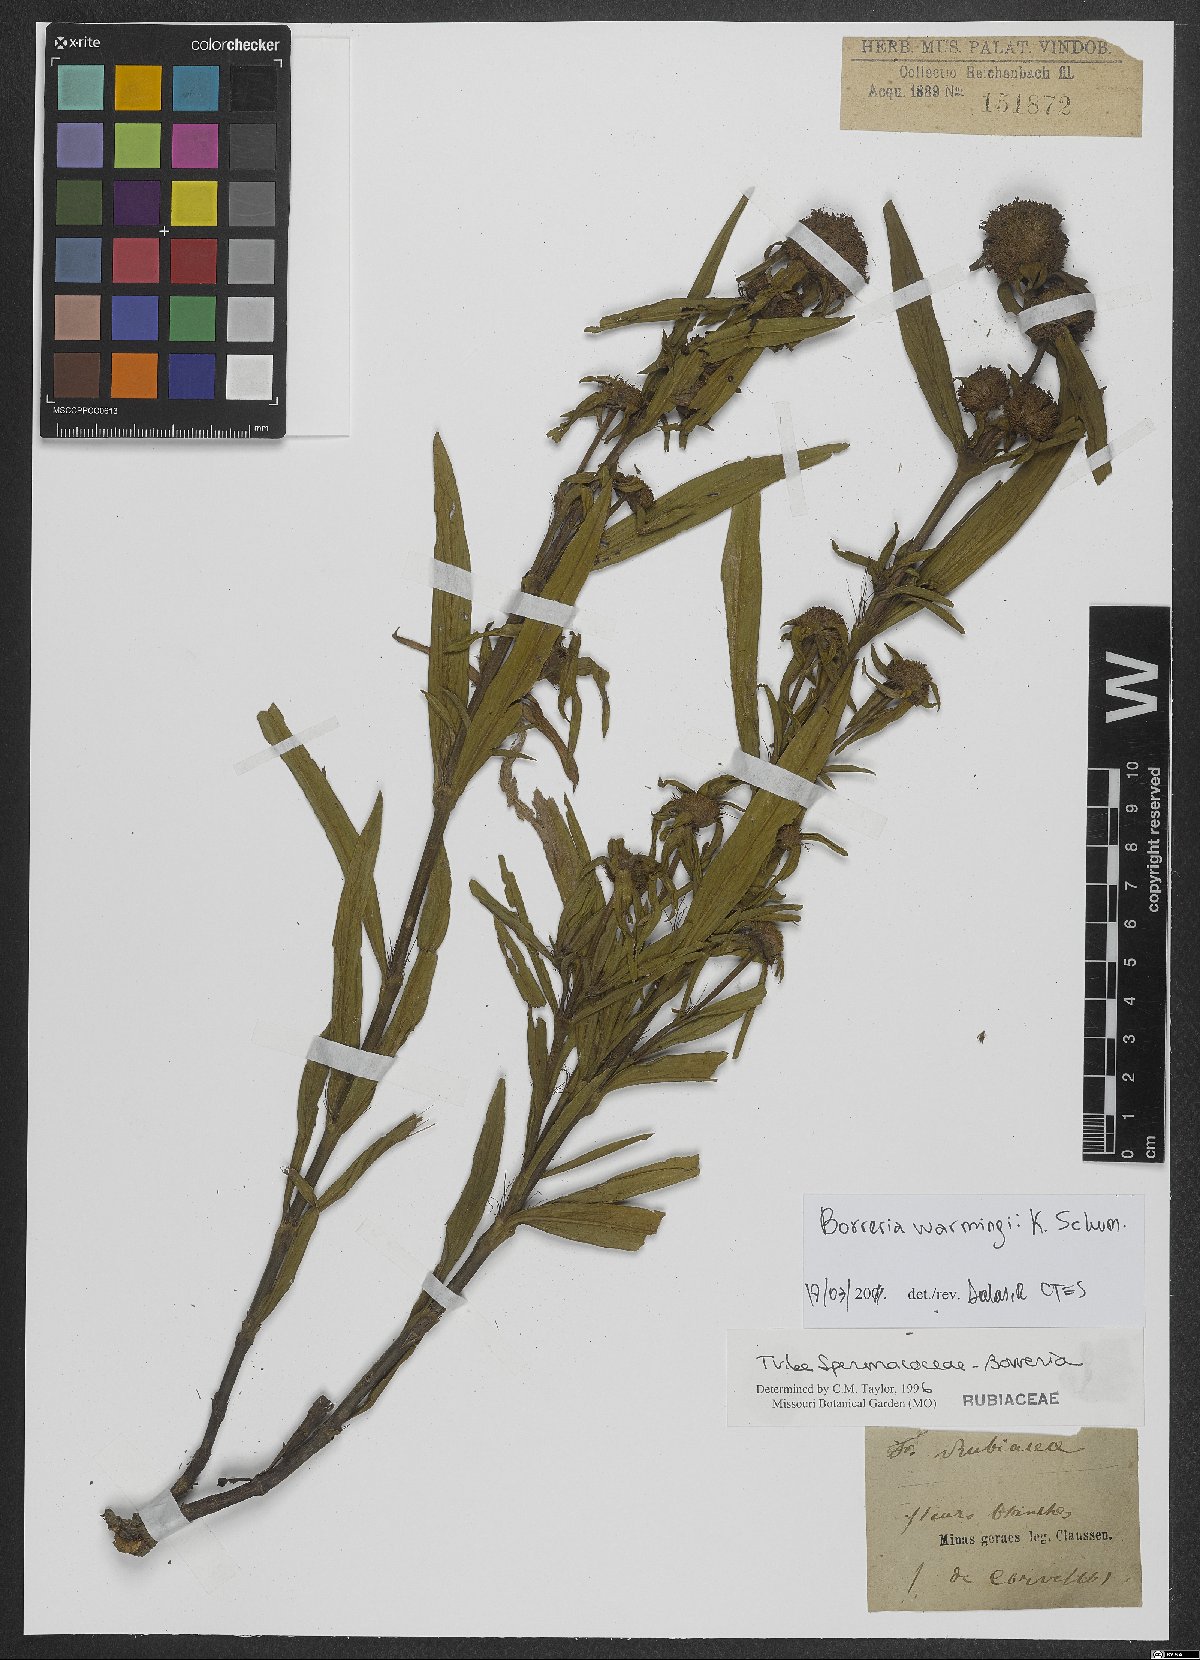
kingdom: Plantae
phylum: Tracheophyta
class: Magnoliopsida
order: Gentianales
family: Rubiaceae
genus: Spermacoce
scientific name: Spermacoce warmingii
